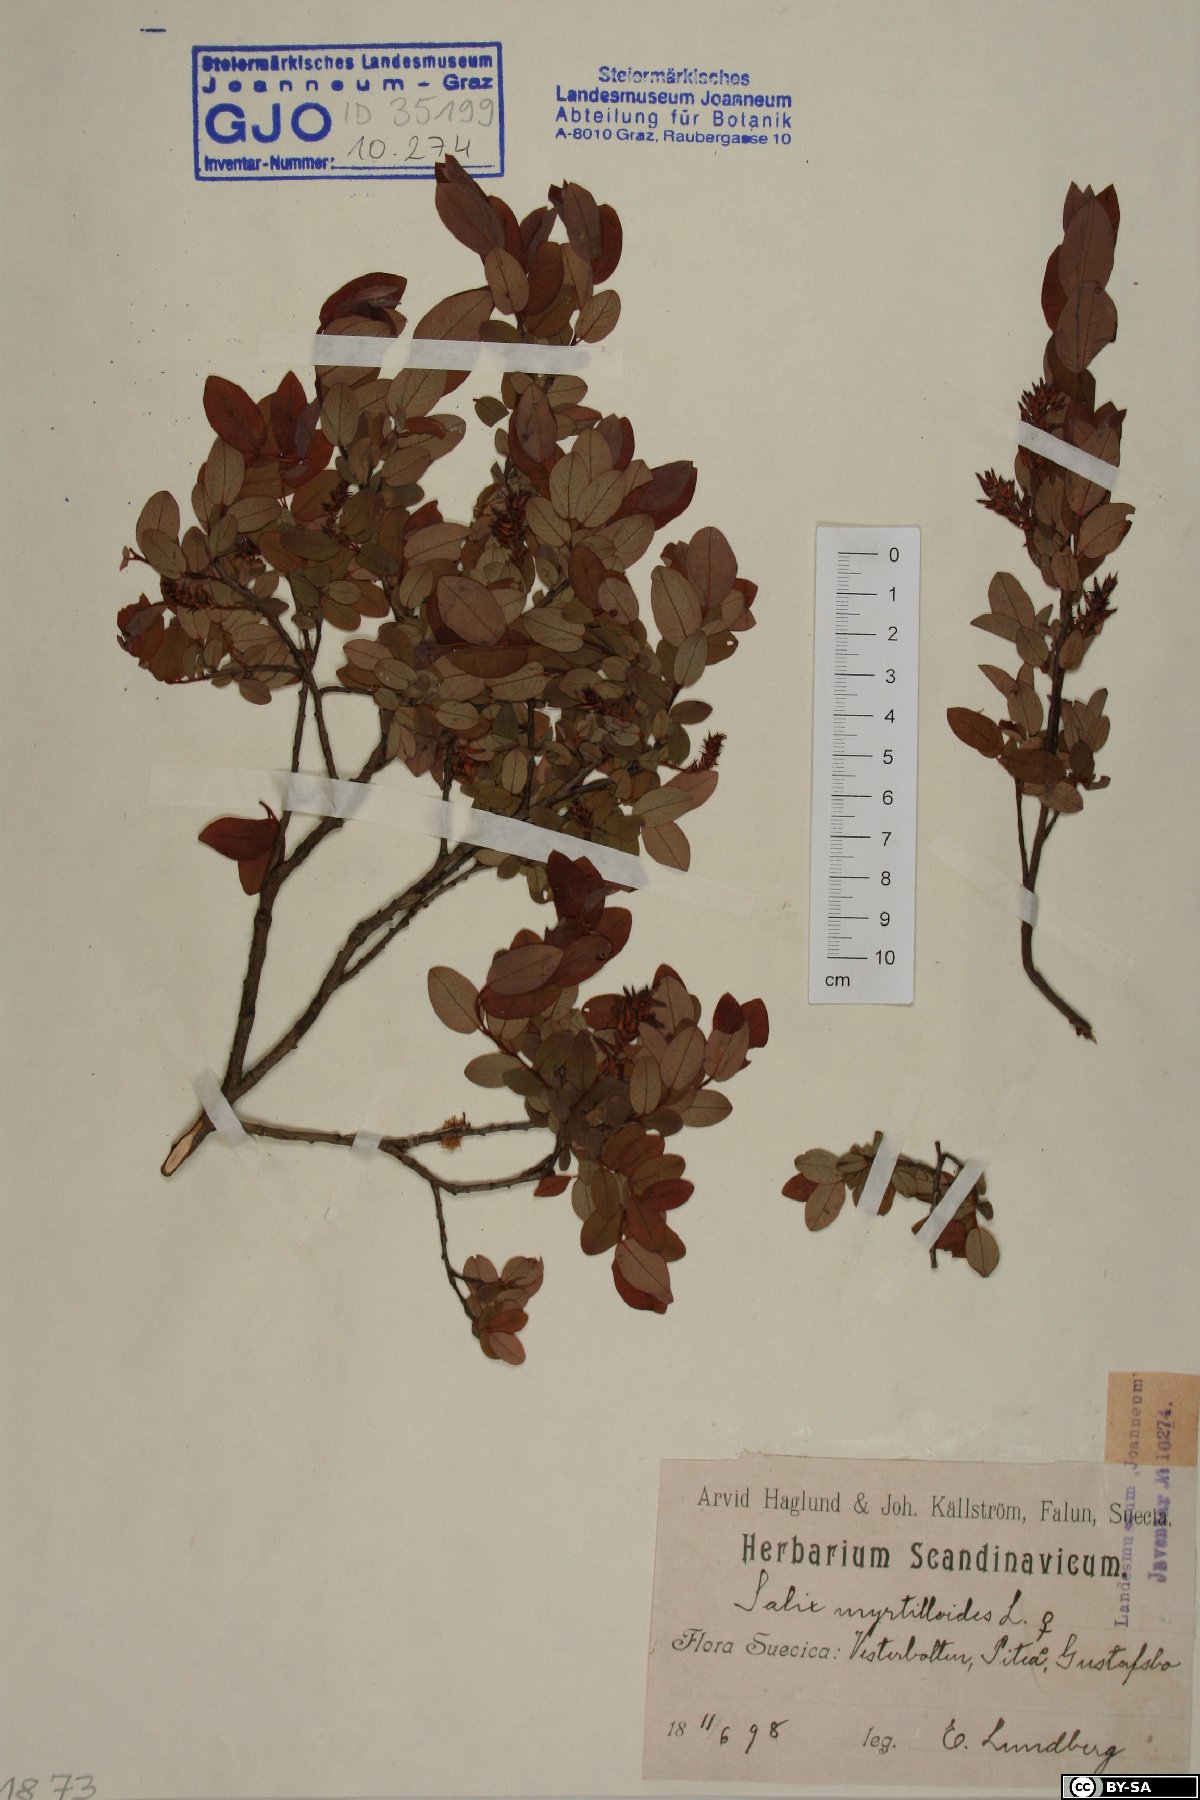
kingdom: Plantae
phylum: Tracheophyta
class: Magnoliopsida
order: Malpighiales
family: Salicaceae
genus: Salix
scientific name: Salix myrtilloides
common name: Myrtle-leaved willow
